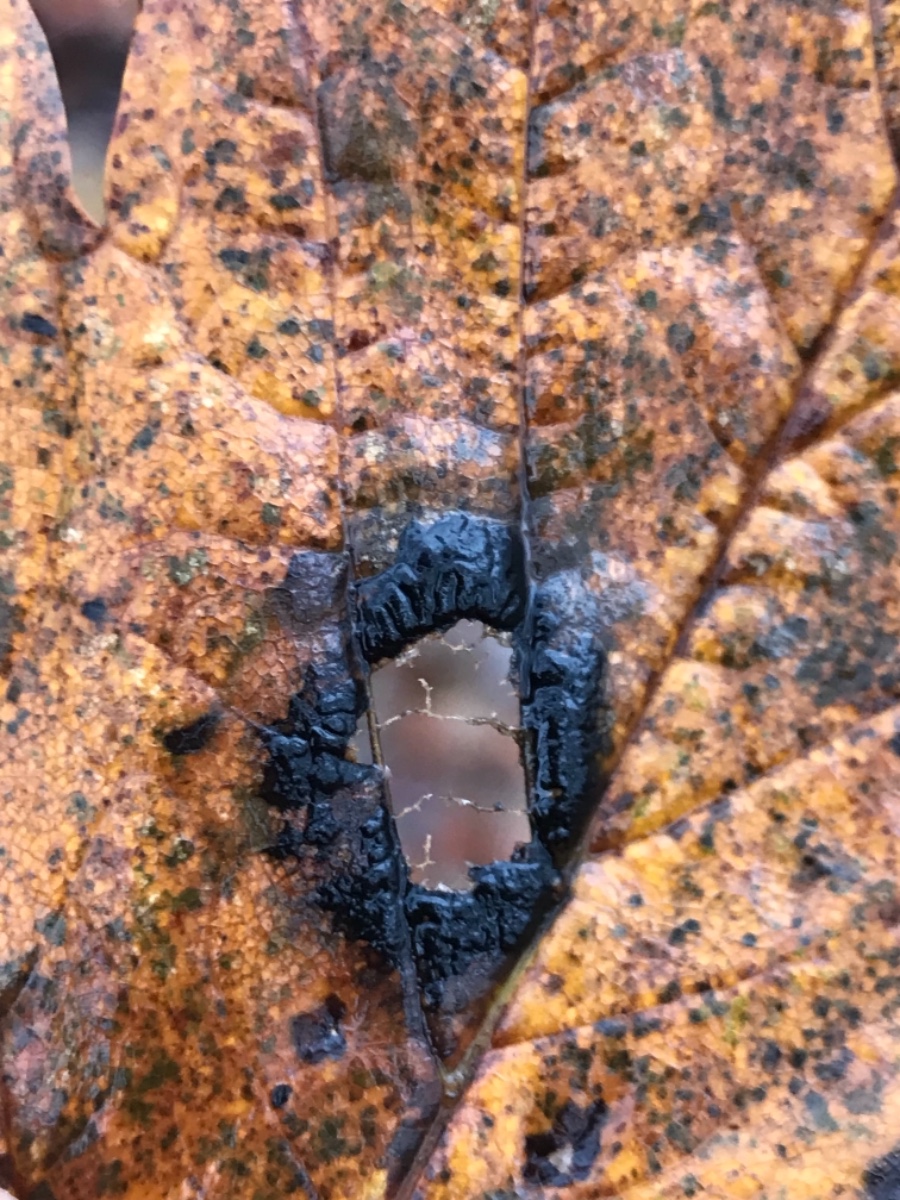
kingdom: Fungi
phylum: Ascomycota
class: Leotiomycetes
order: Rhytismatales
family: Rhytismataceae
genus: Rhytisma
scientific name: Rhytisma acerinum
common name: ahorn-rynkeplet
